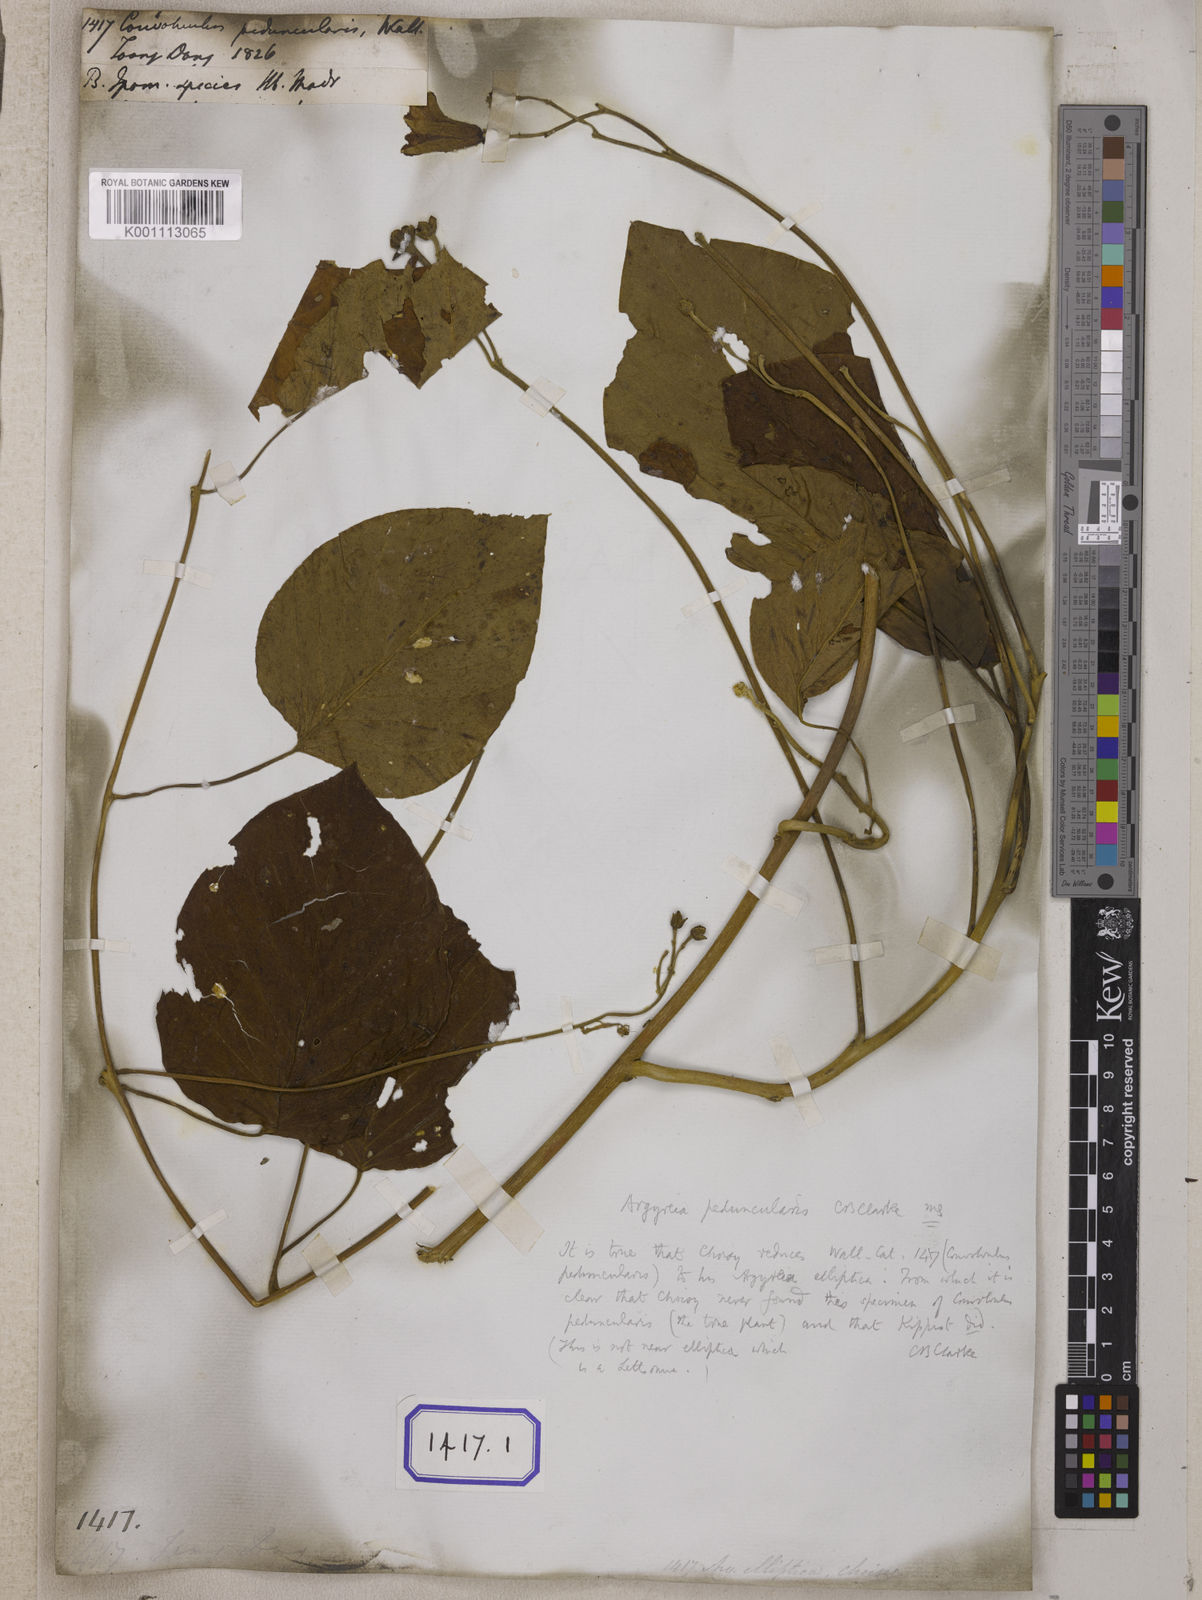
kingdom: Plantae
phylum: Tracheophyta
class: Magnoliopsida
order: Solanales
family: Convolvulaceae
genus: Convolvulus
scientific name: Convolvulus
